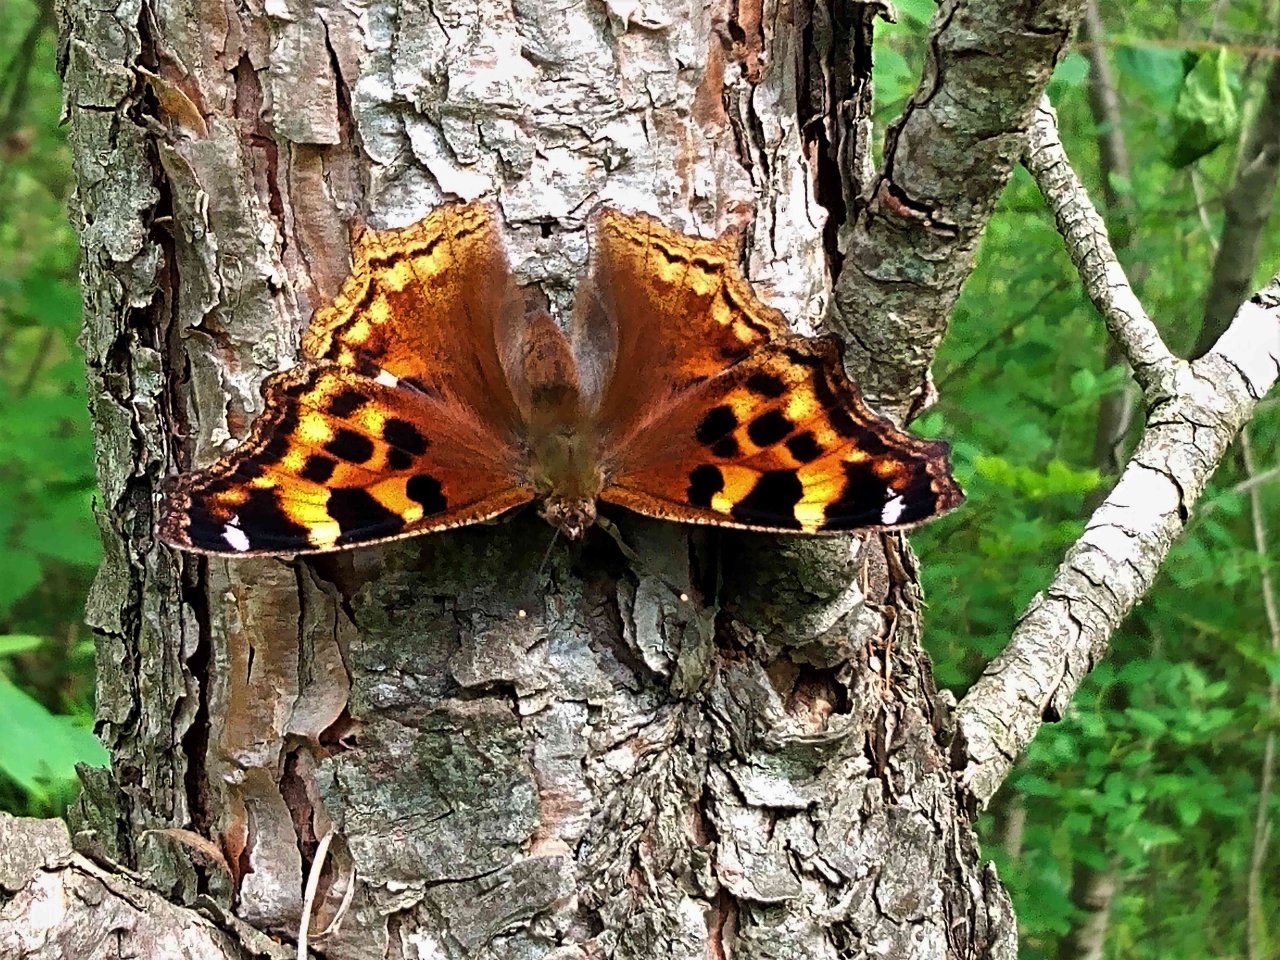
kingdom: Animalia
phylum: Arthropoda
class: Insecta
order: Lepidoptera
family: Nymphalidae
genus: Polygonia
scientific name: Polygonia vaualbum
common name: Compton Tortoiseshell
